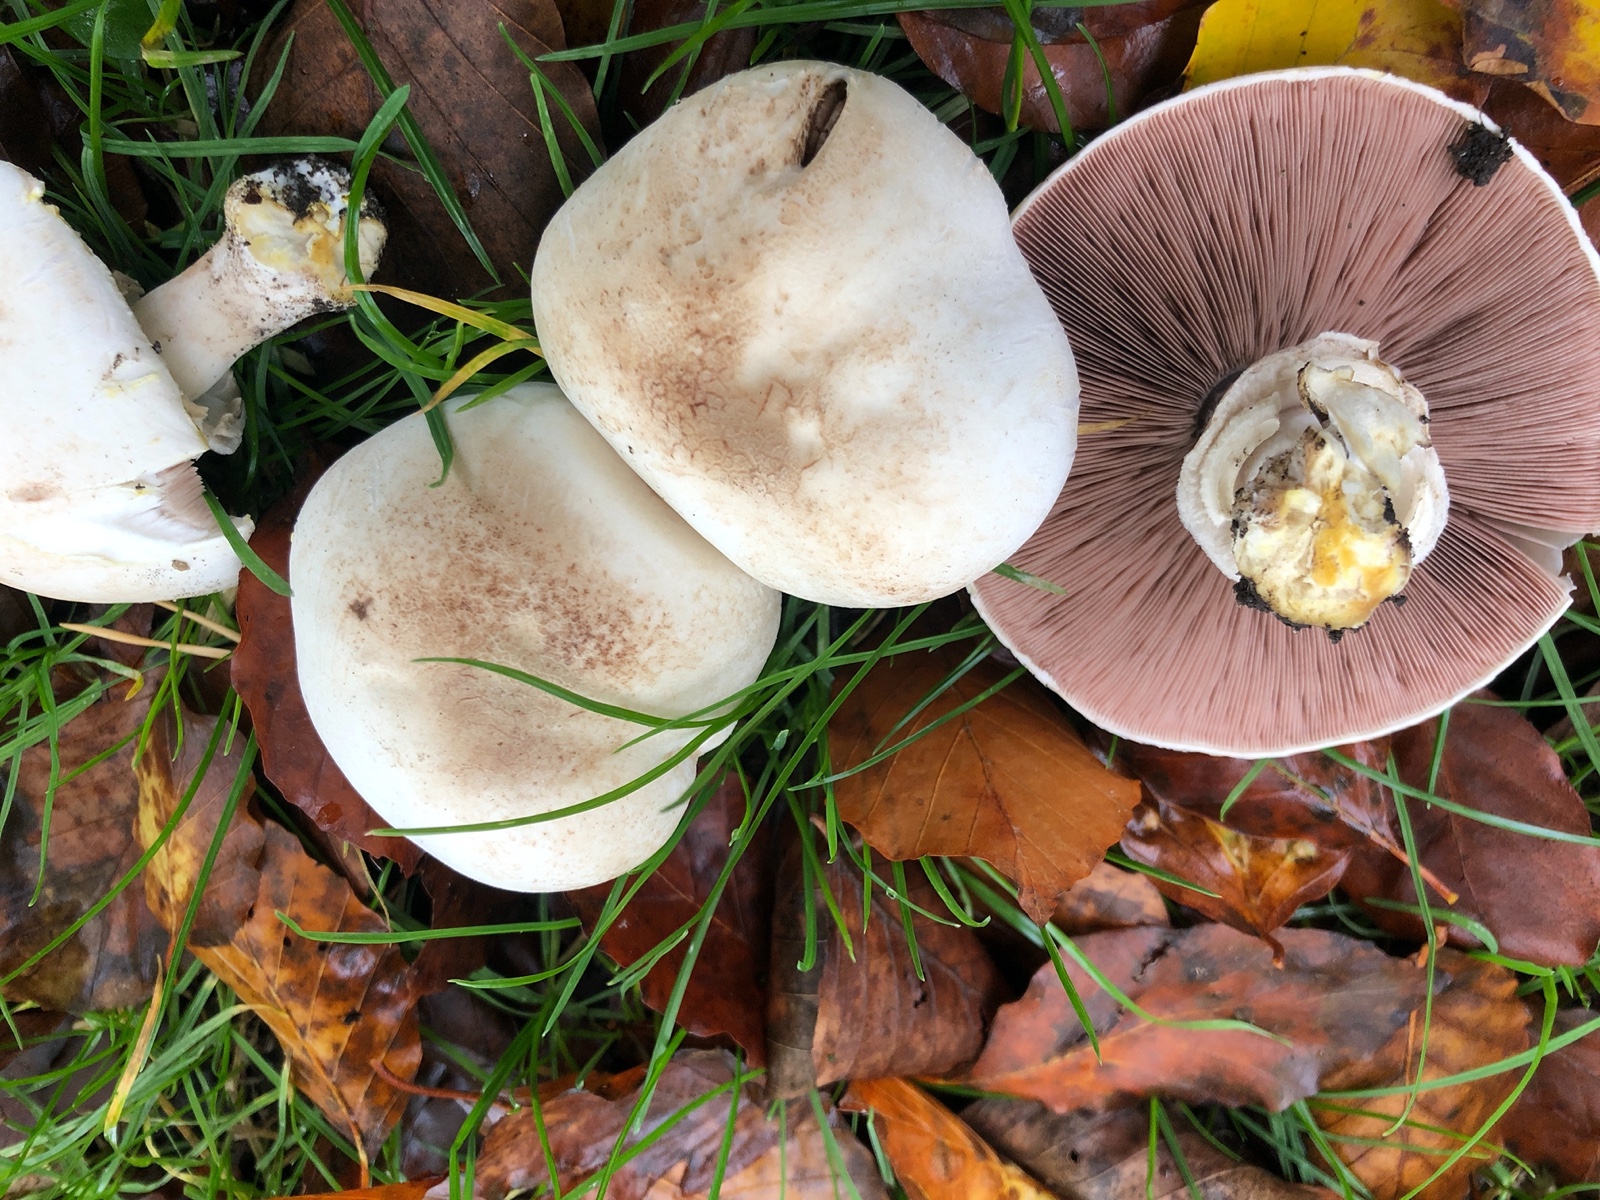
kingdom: Fungi
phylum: Basidiomycota
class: Agaricomycetes
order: Agaricales
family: Agaricaceae
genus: Agaricus
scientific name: Agaricus xanthodermus
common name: karbol-champignon
